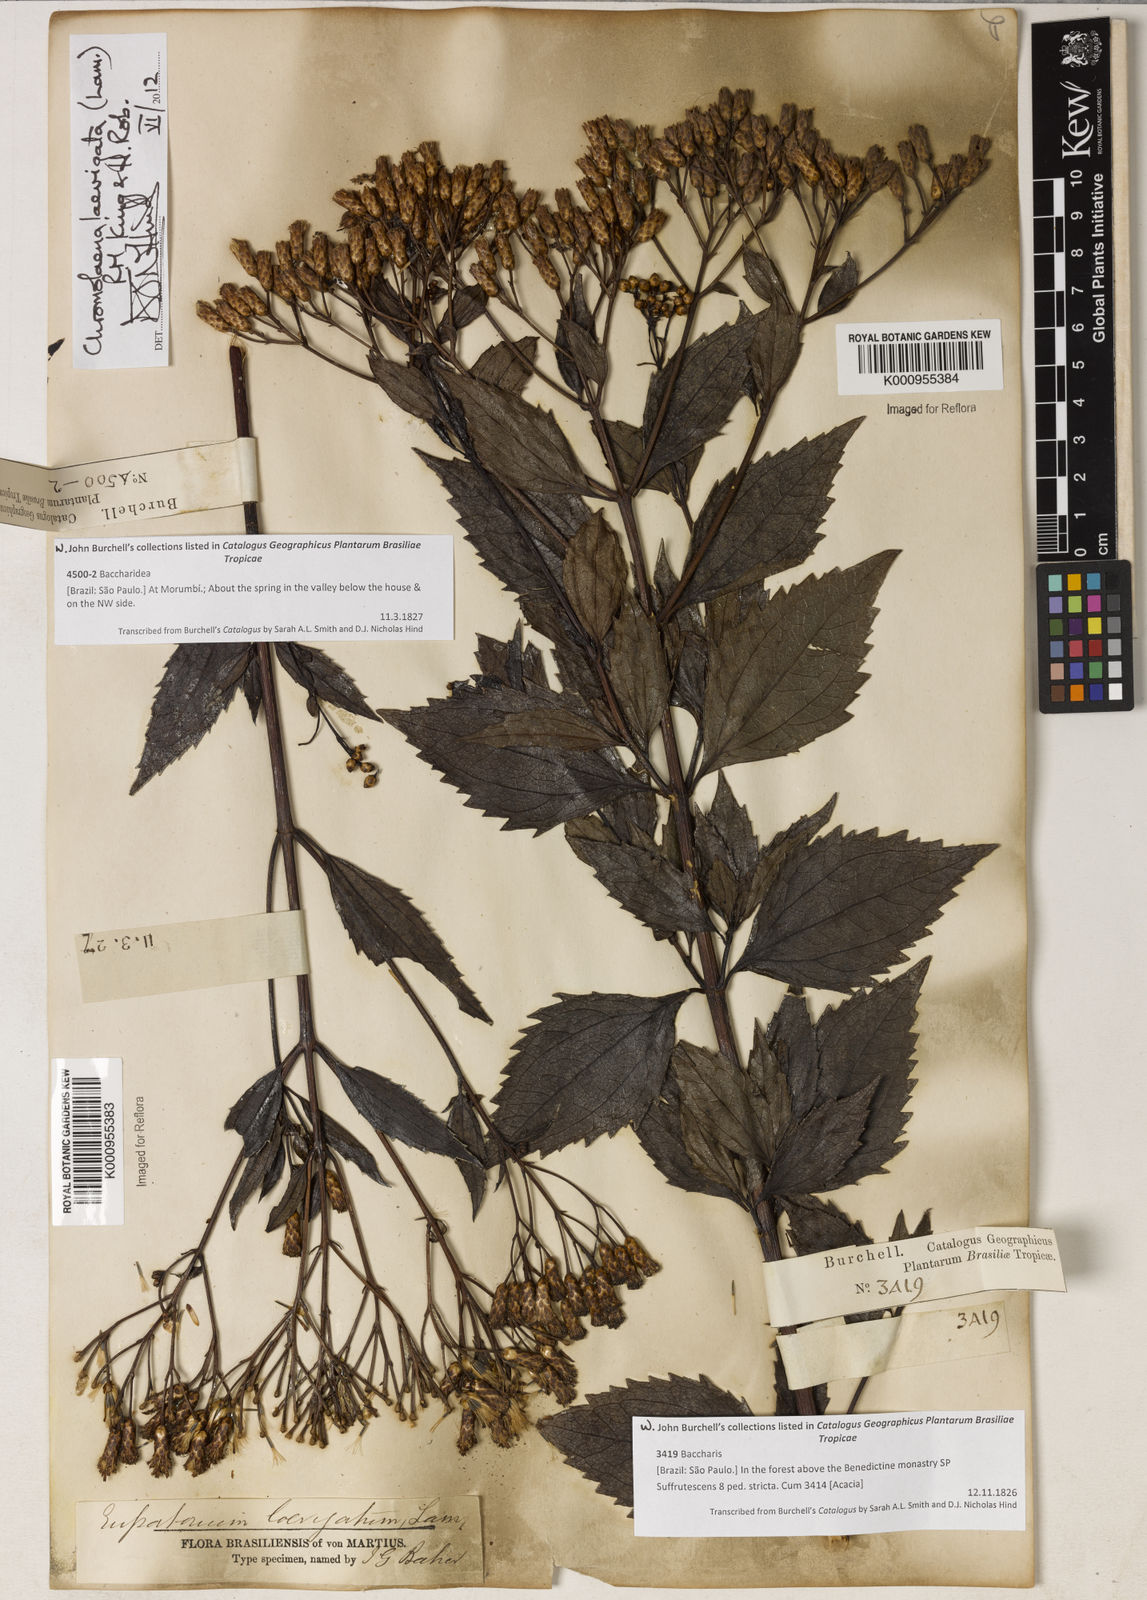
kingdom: Plantae
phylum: Tracheophyta
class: Magnoliopsida
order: Asterales
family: Asteraceae
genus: Chromolaena
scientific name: Chromolaena laevigata
